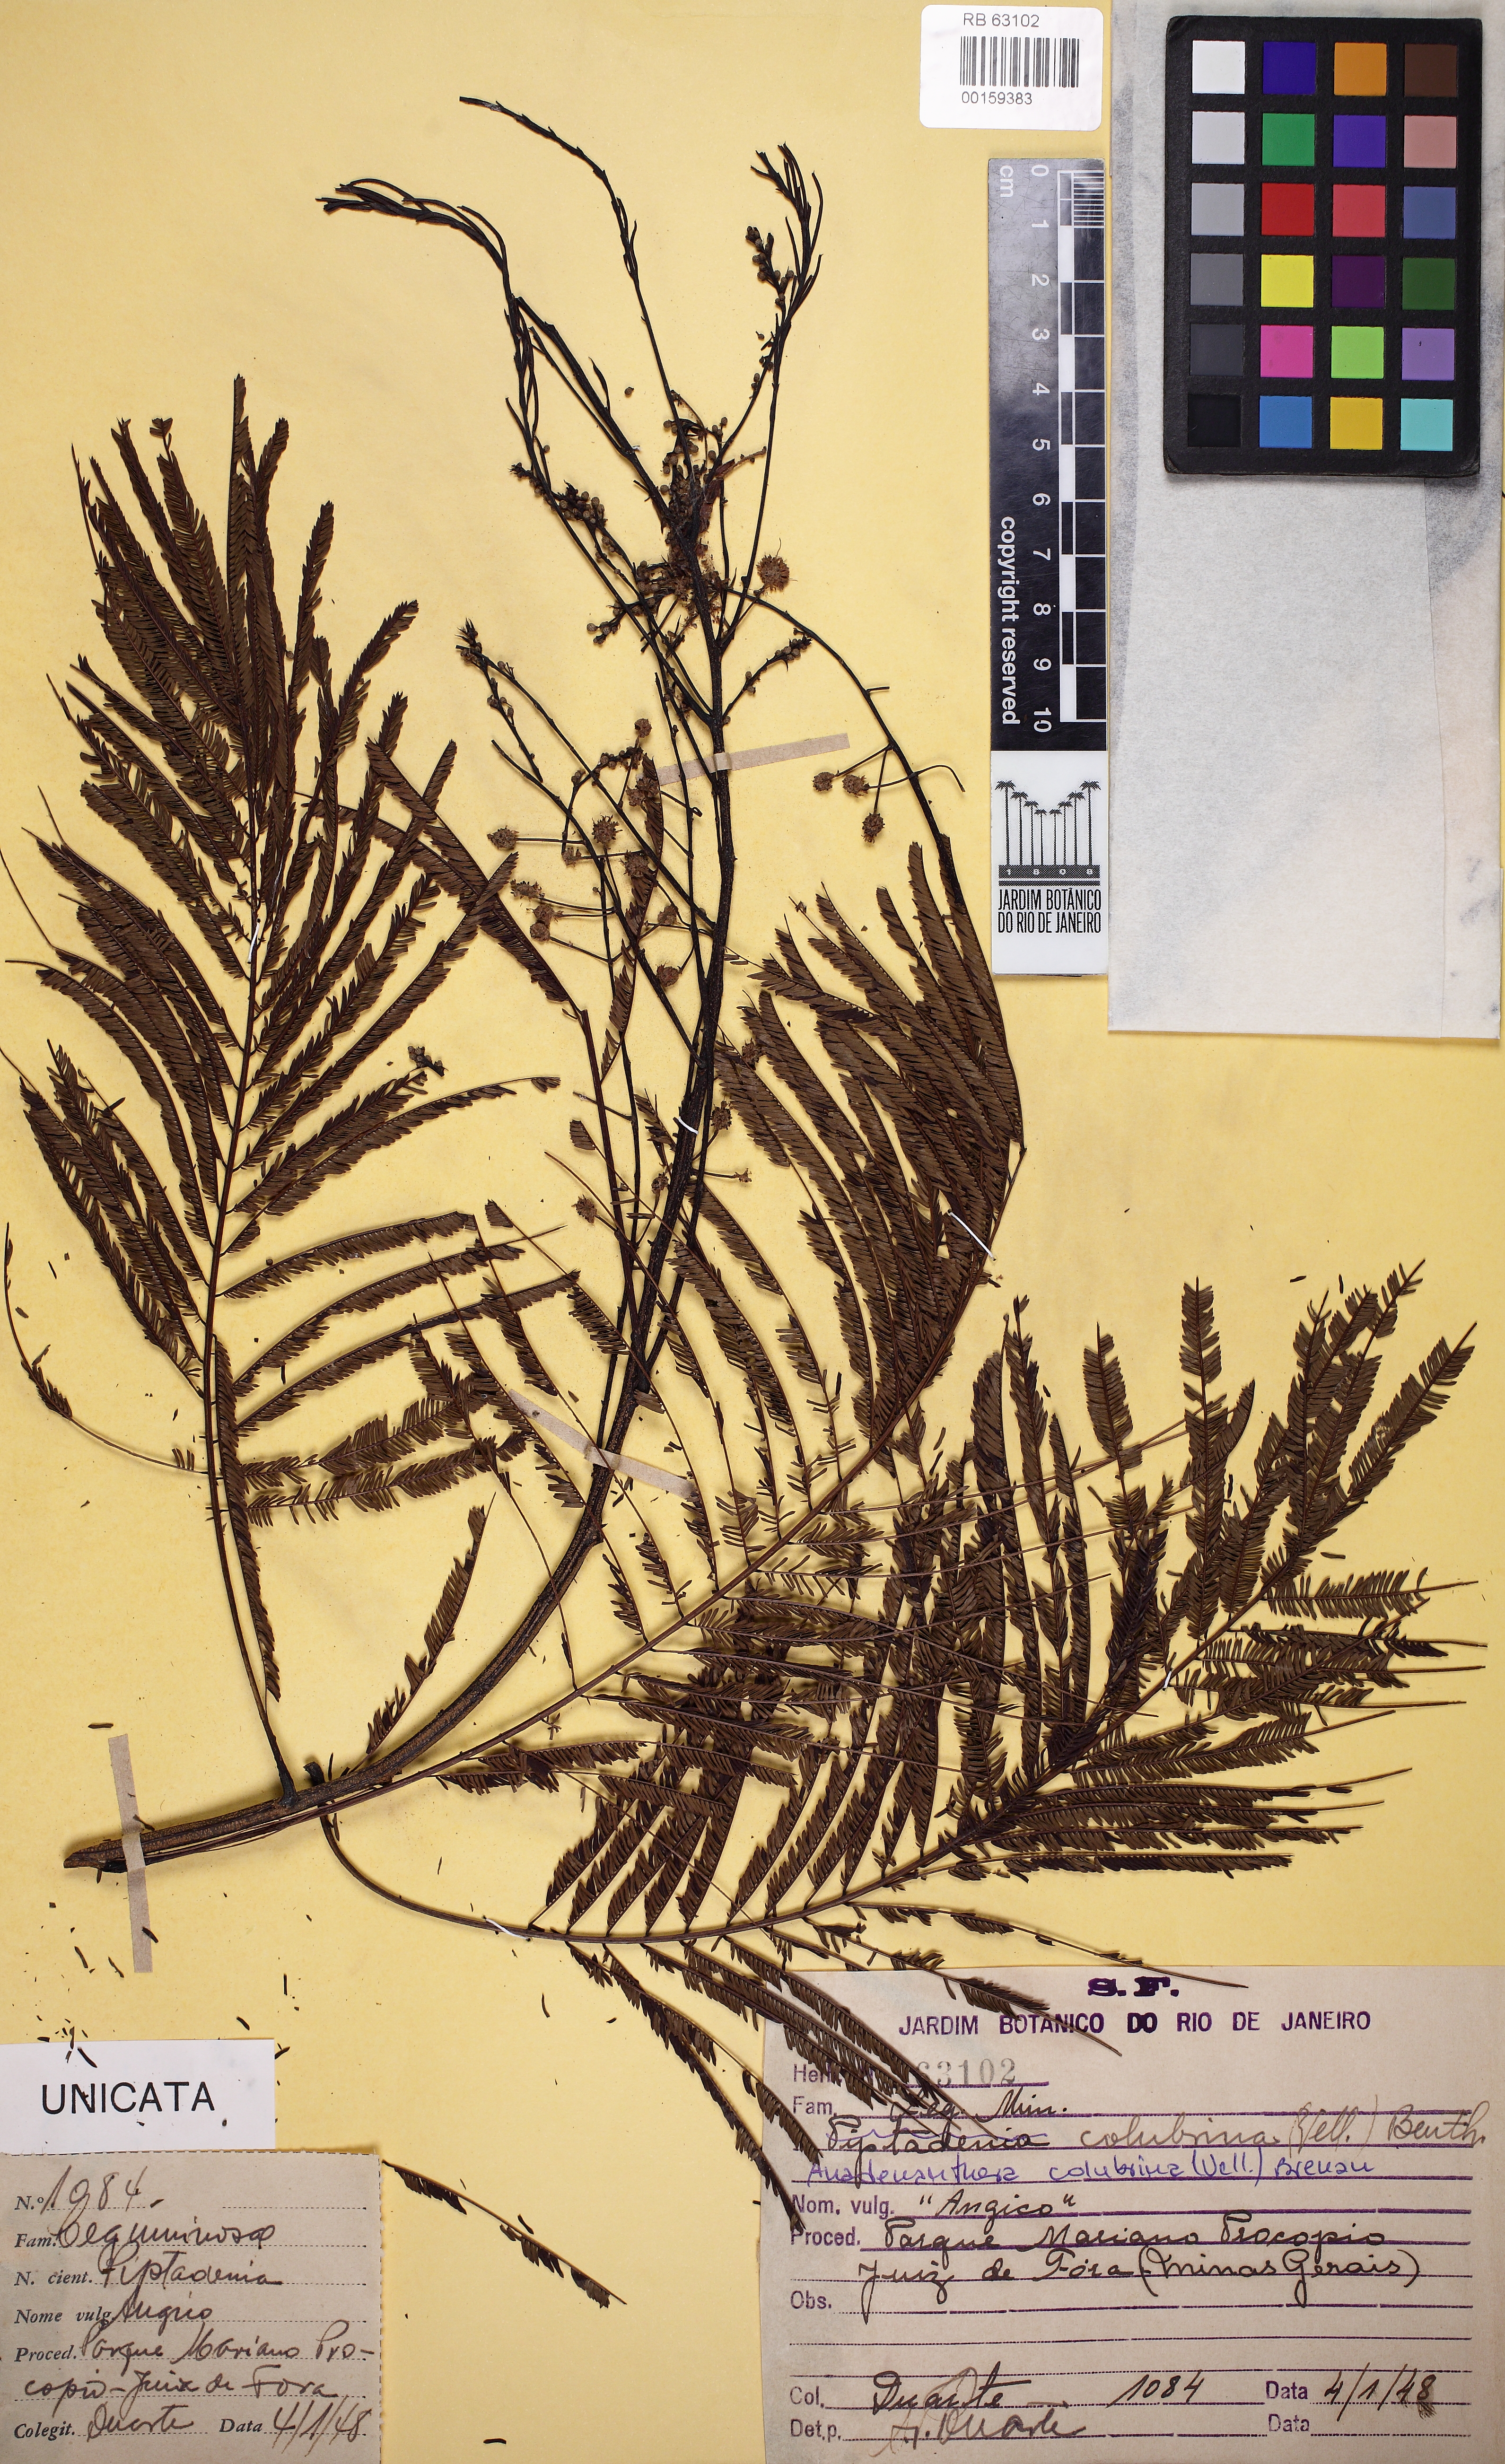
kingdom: Plantae
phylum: Tracheophyta
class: Magnoliopsida
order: Fabales
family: Fabaceae
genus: Anadenanthera
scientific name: Anadenanthera colubrina
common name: Curupay
